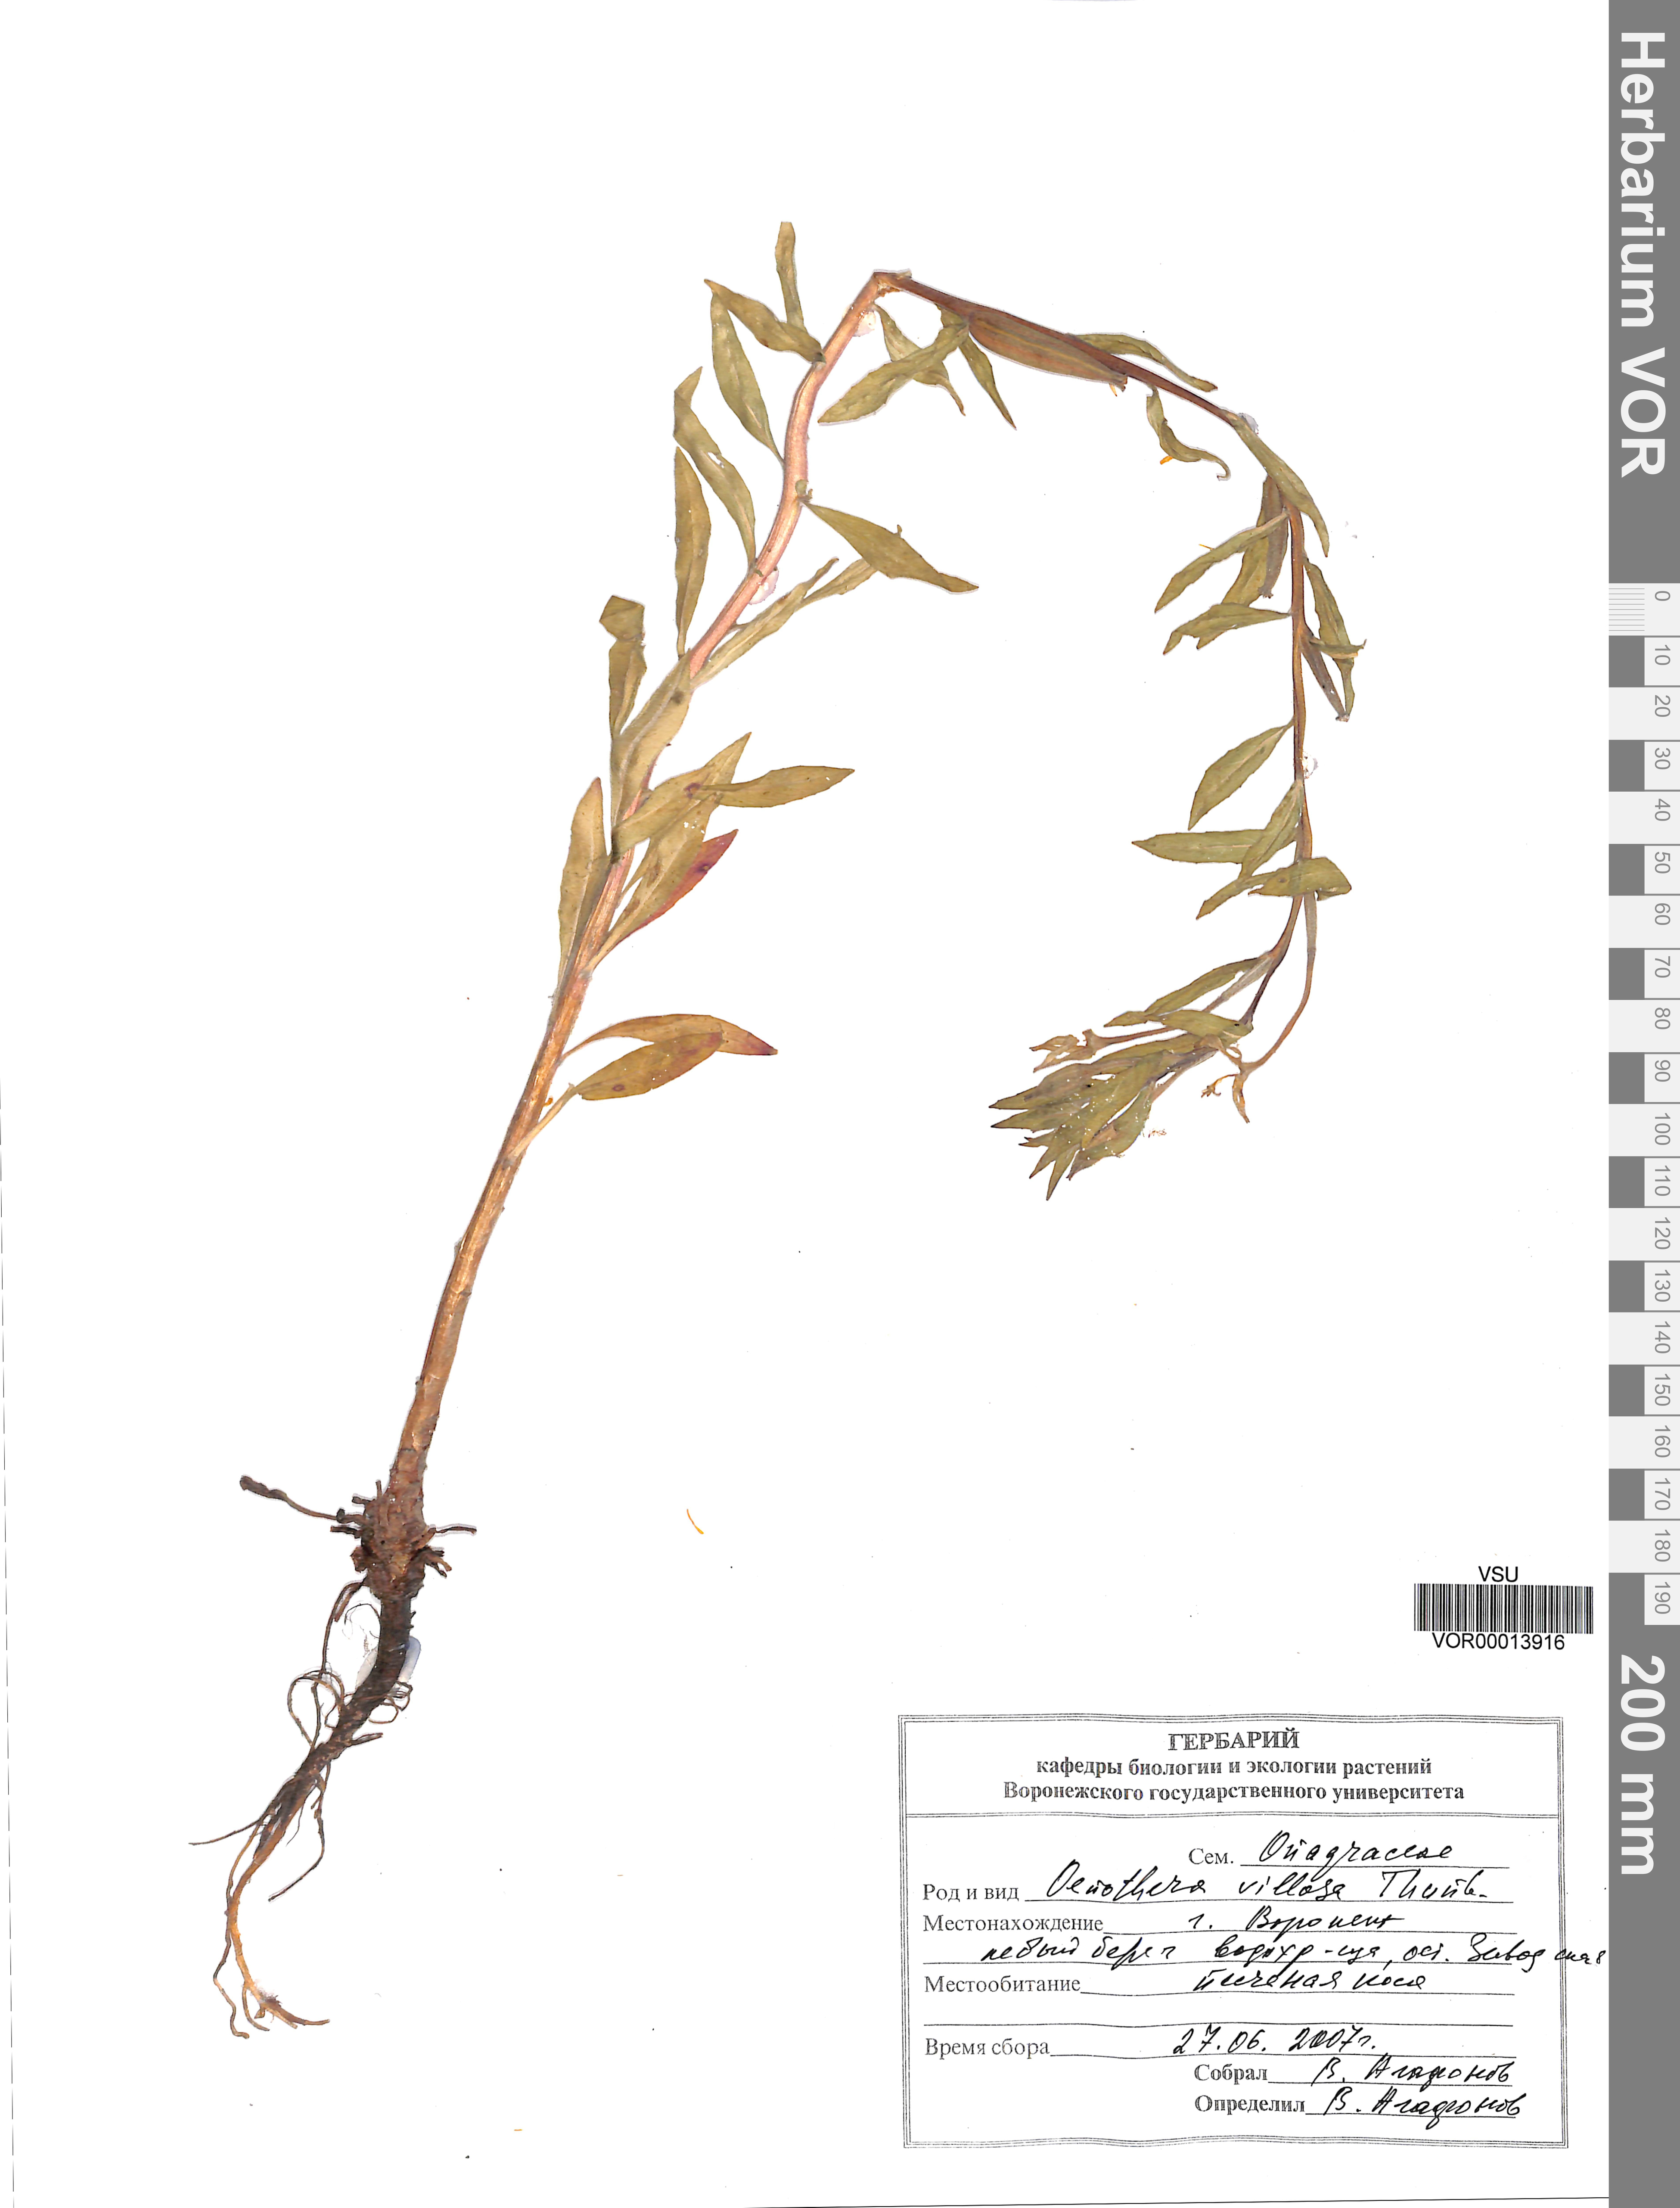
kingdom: Plantae
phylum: Tracheophyta
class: Magnoliopsida
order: Myrtales
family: Onagraceae
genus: Oenothera
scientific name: Oenothera villosa
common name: Hairy evening-primrose
